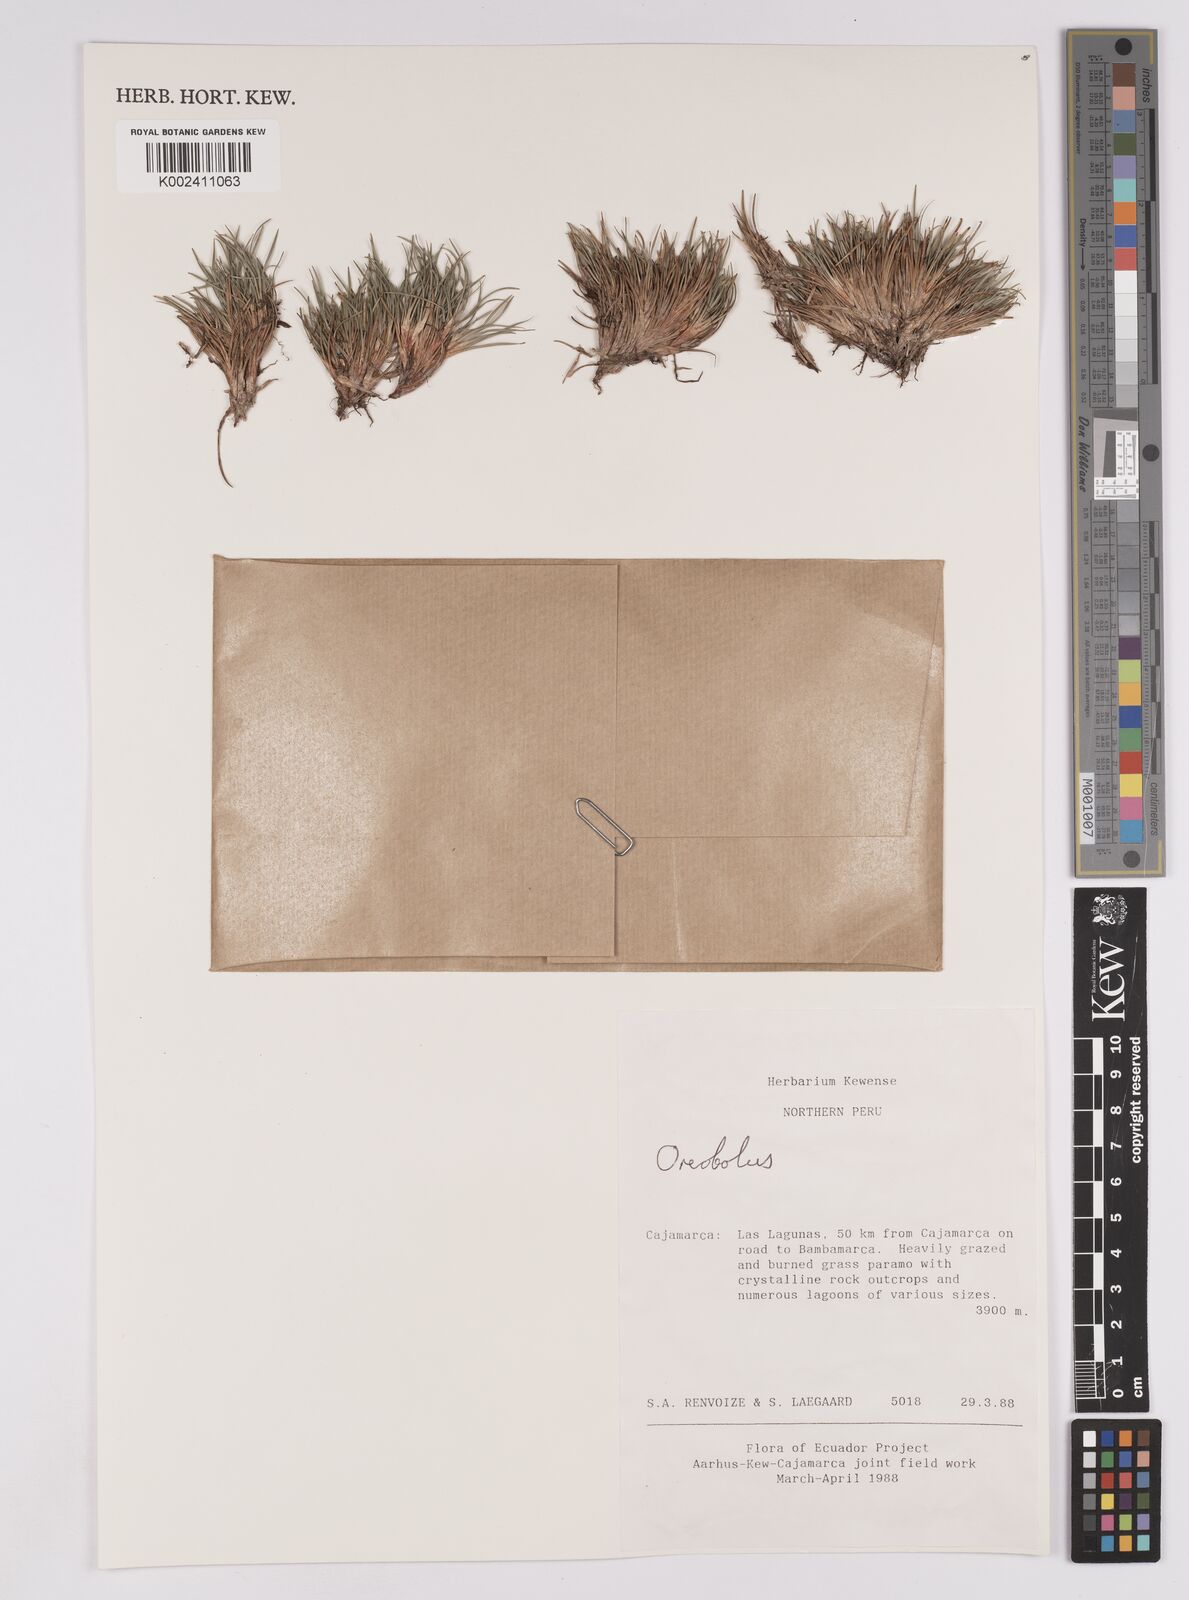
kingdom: Plantae
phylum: Tracheophyta
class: Liliopsida
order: Poales
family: Cyperaceae
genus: Oreobolus
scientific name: Oreobolus
